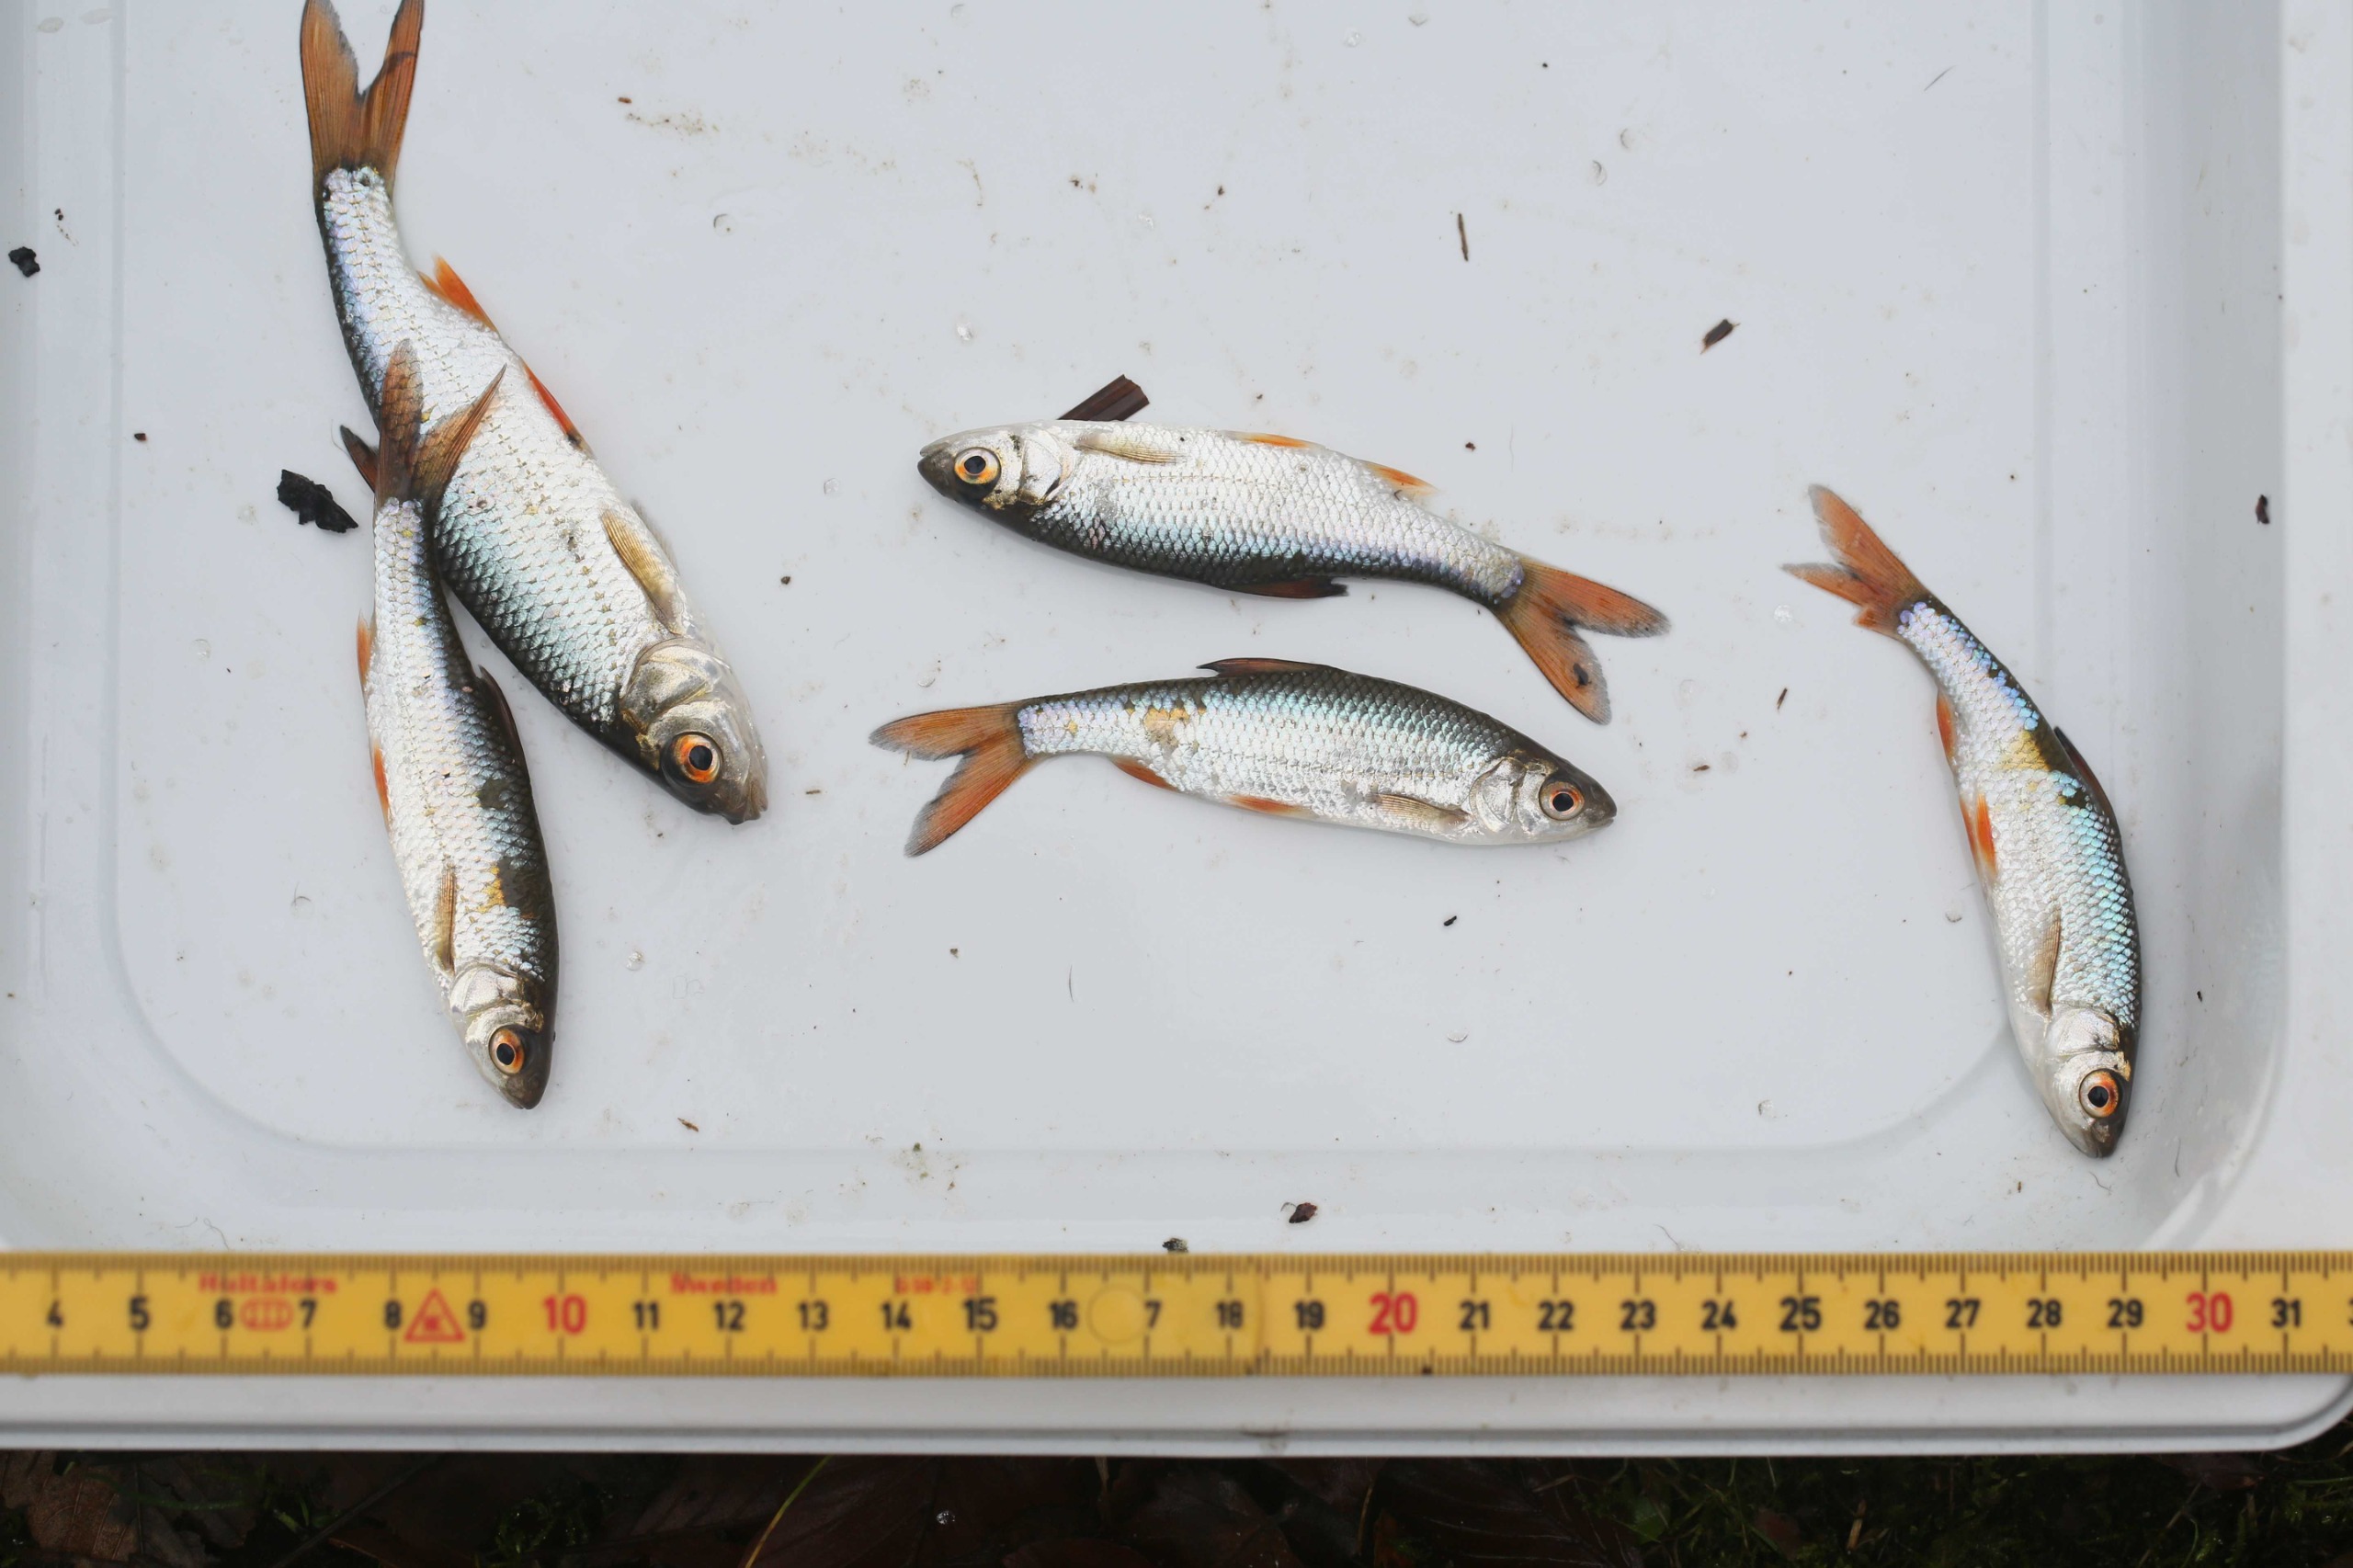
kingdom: Animalia
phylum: Chordata
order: Cypriniformes
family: Cyprinidae
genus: Rutilus
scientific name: Rutilus rutilus
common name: Skalle
